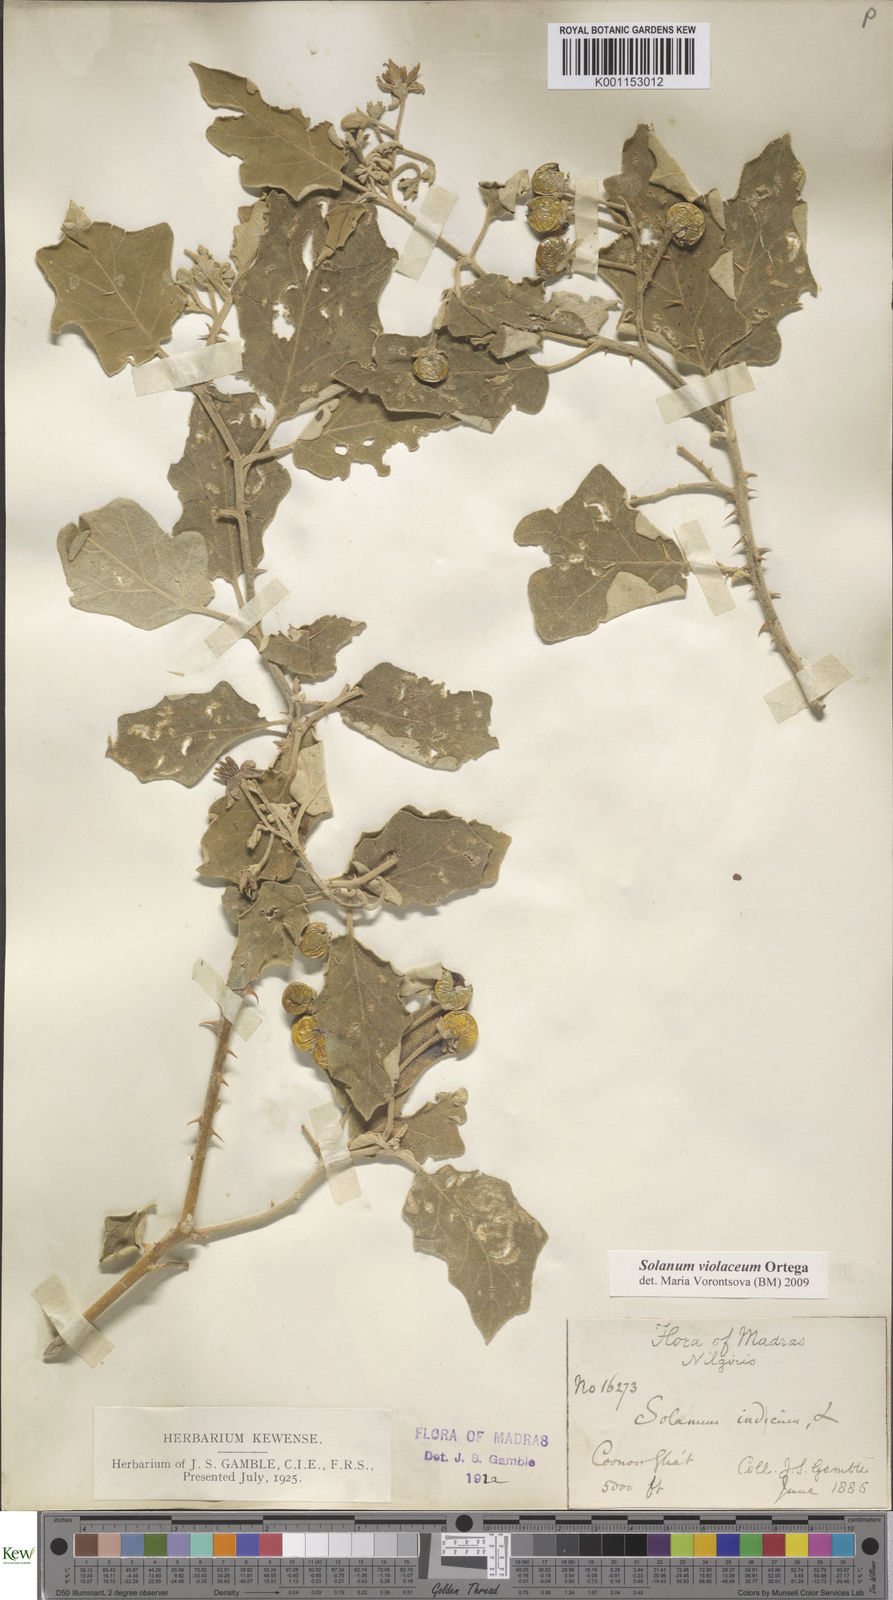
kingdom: Plantae
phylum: Tracheophyta
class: Magnoliopsida
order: Solanales
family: Solanaceae
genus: Solanum
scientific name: Solanum violaceum
